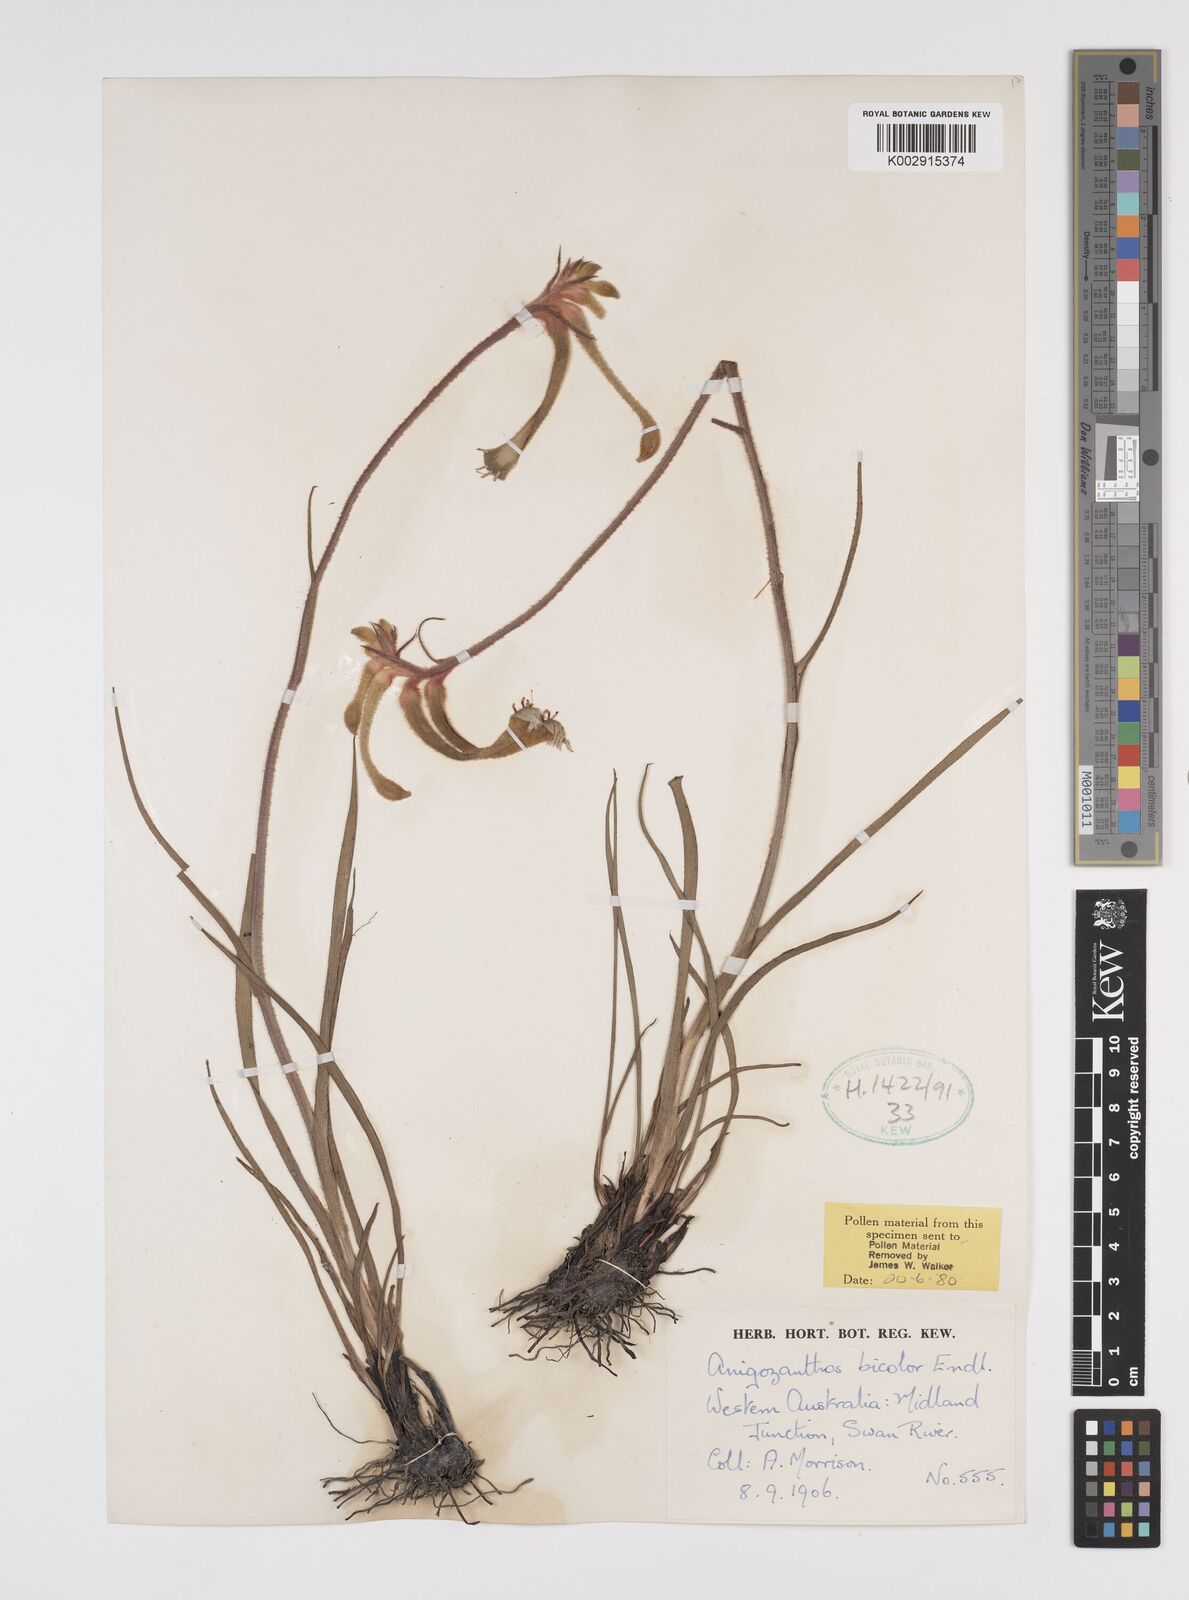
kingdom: Plantae
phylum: Tracheophyta
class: Liliopsida
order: Commelinales
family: Haemodoraceae
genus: Anigozanthos
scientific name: Anigozanthos bicolor
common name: Little kangaroo-paw
